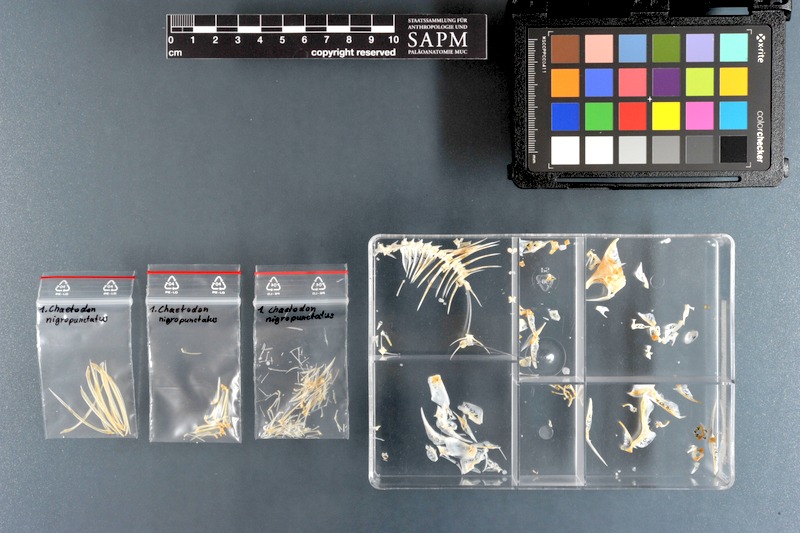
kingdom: Animalia
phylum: Chordata
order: Perciformes
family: Chaetodontidae
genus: Chaetodon
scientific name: Chaetodon nigropunctatus
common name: Black-spotted butterflyfish
